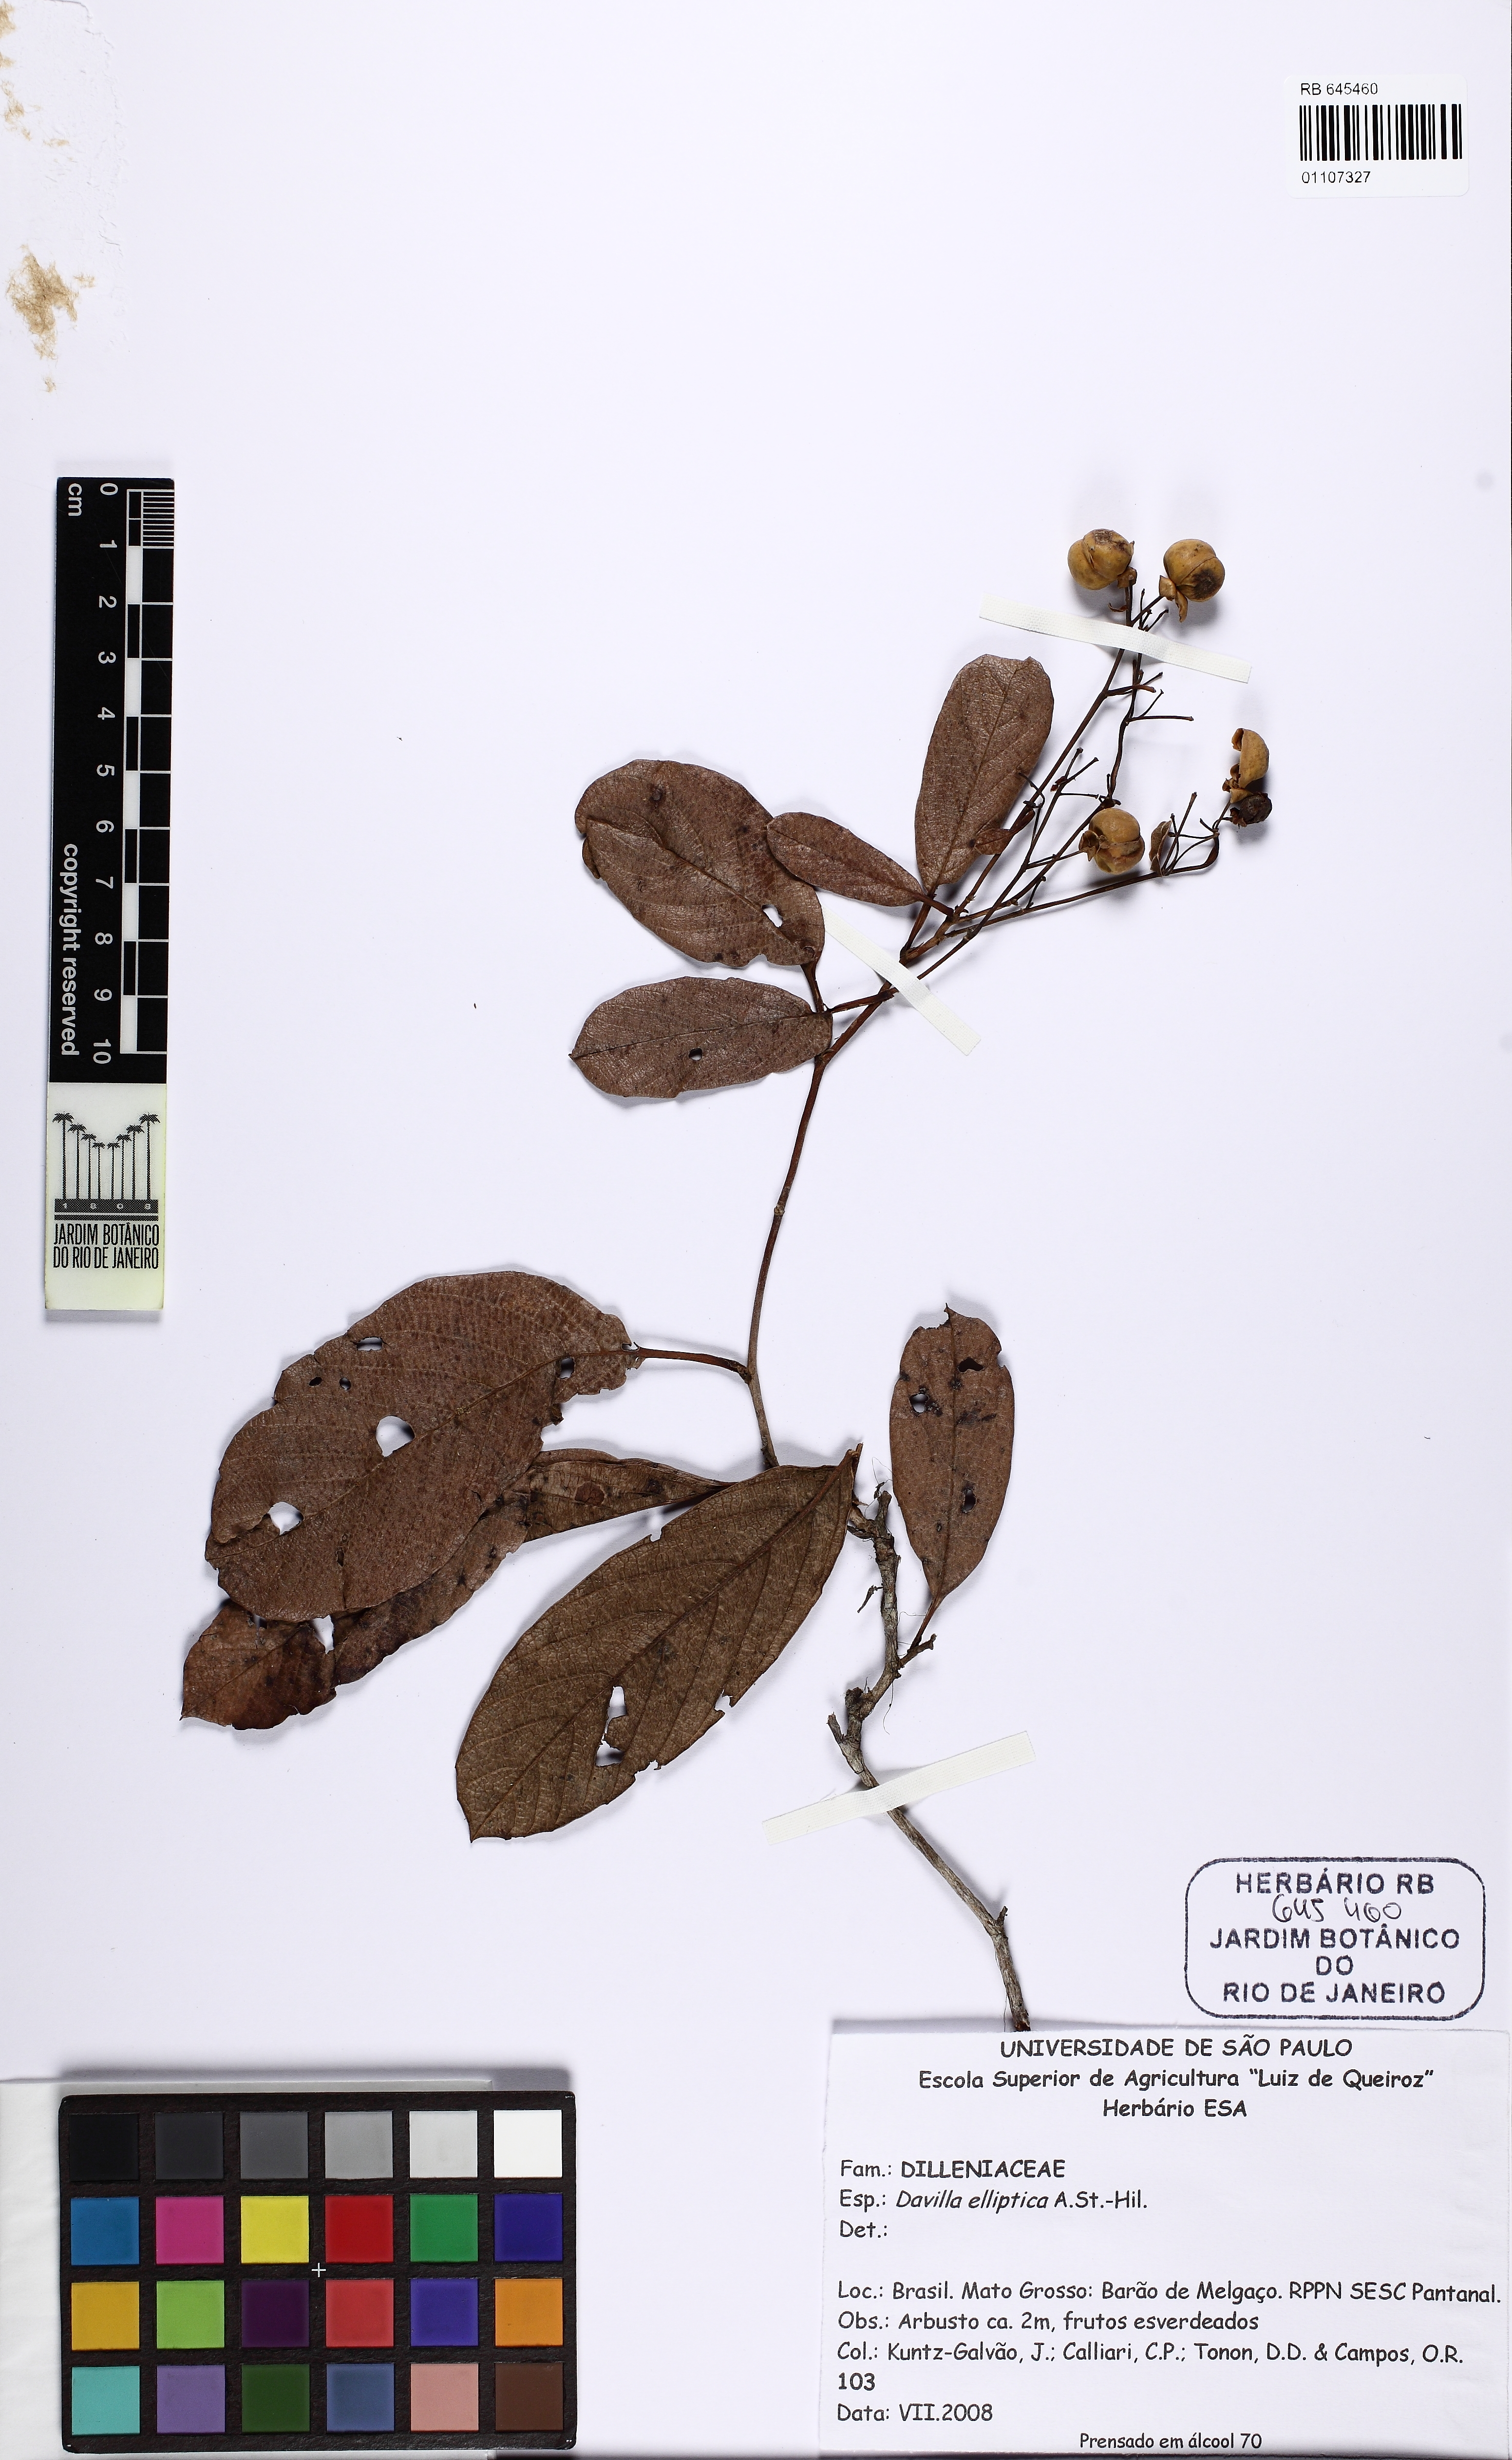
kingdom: Plantae
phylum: Tracheophyta
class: Magnoliopsida
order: Dilleniales
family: Dilleniaceae
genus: Davilla
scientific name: Davilla elliptica
